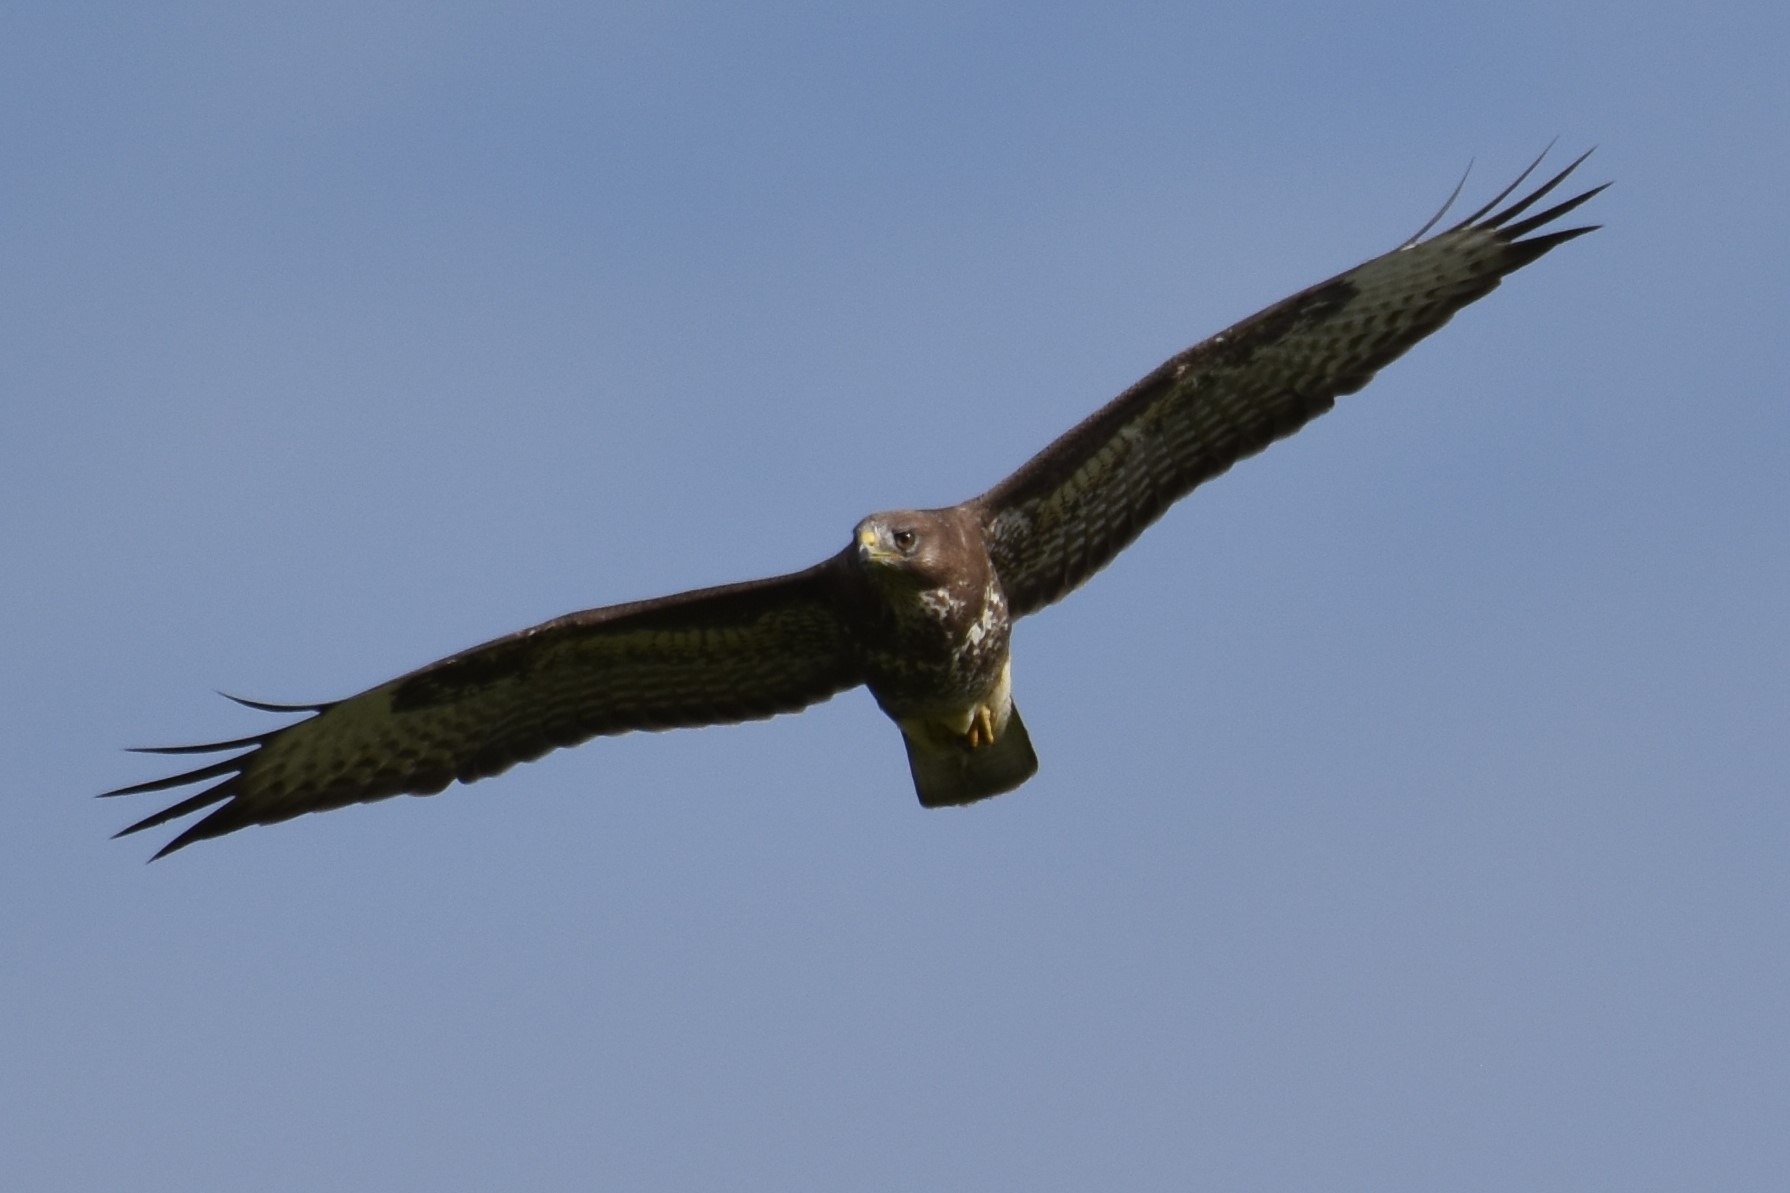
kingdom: Animalia
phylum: Chordata
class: Aves
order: Accipitriformes
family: Accipitridae
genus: Buteo
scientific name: Buteo buteo
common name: Musvåge
